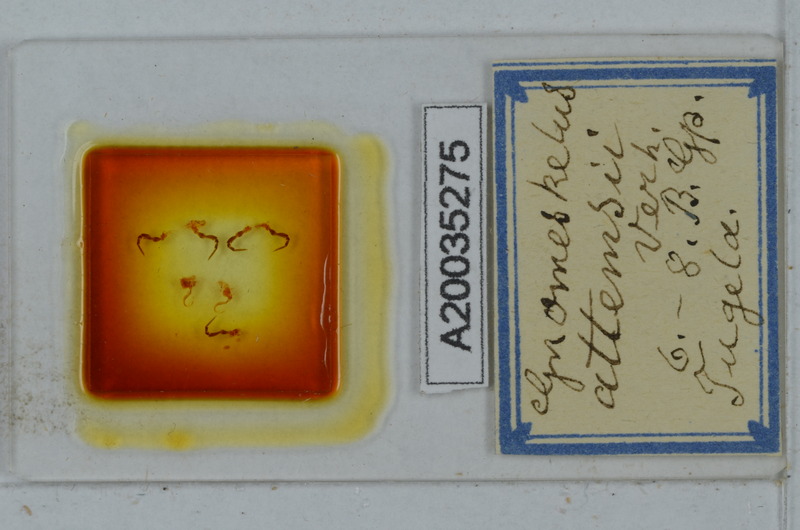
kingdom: Animalia
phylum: Arthropoda
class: Diplopoda
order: Polydesmida
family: Dalodesmidae
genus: Gnomeskelus
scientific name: Gnomeskelus attemsii
